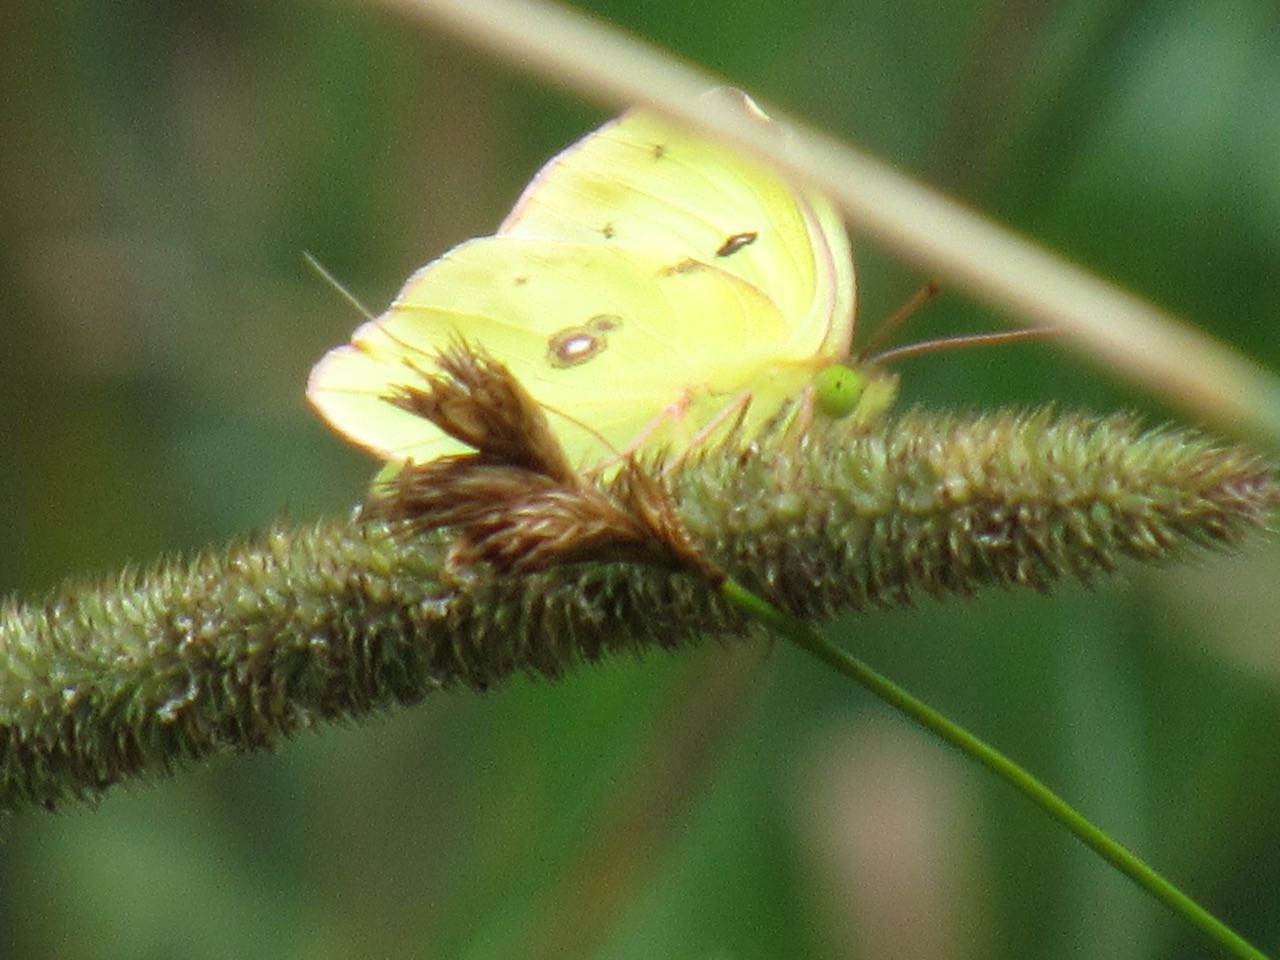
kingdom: Animalia
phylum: Arthropoda
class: Insecta
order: Lepidoptera
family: Pieridae
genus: Colias
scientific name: Colias philodice
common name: Clouded Sulphur
